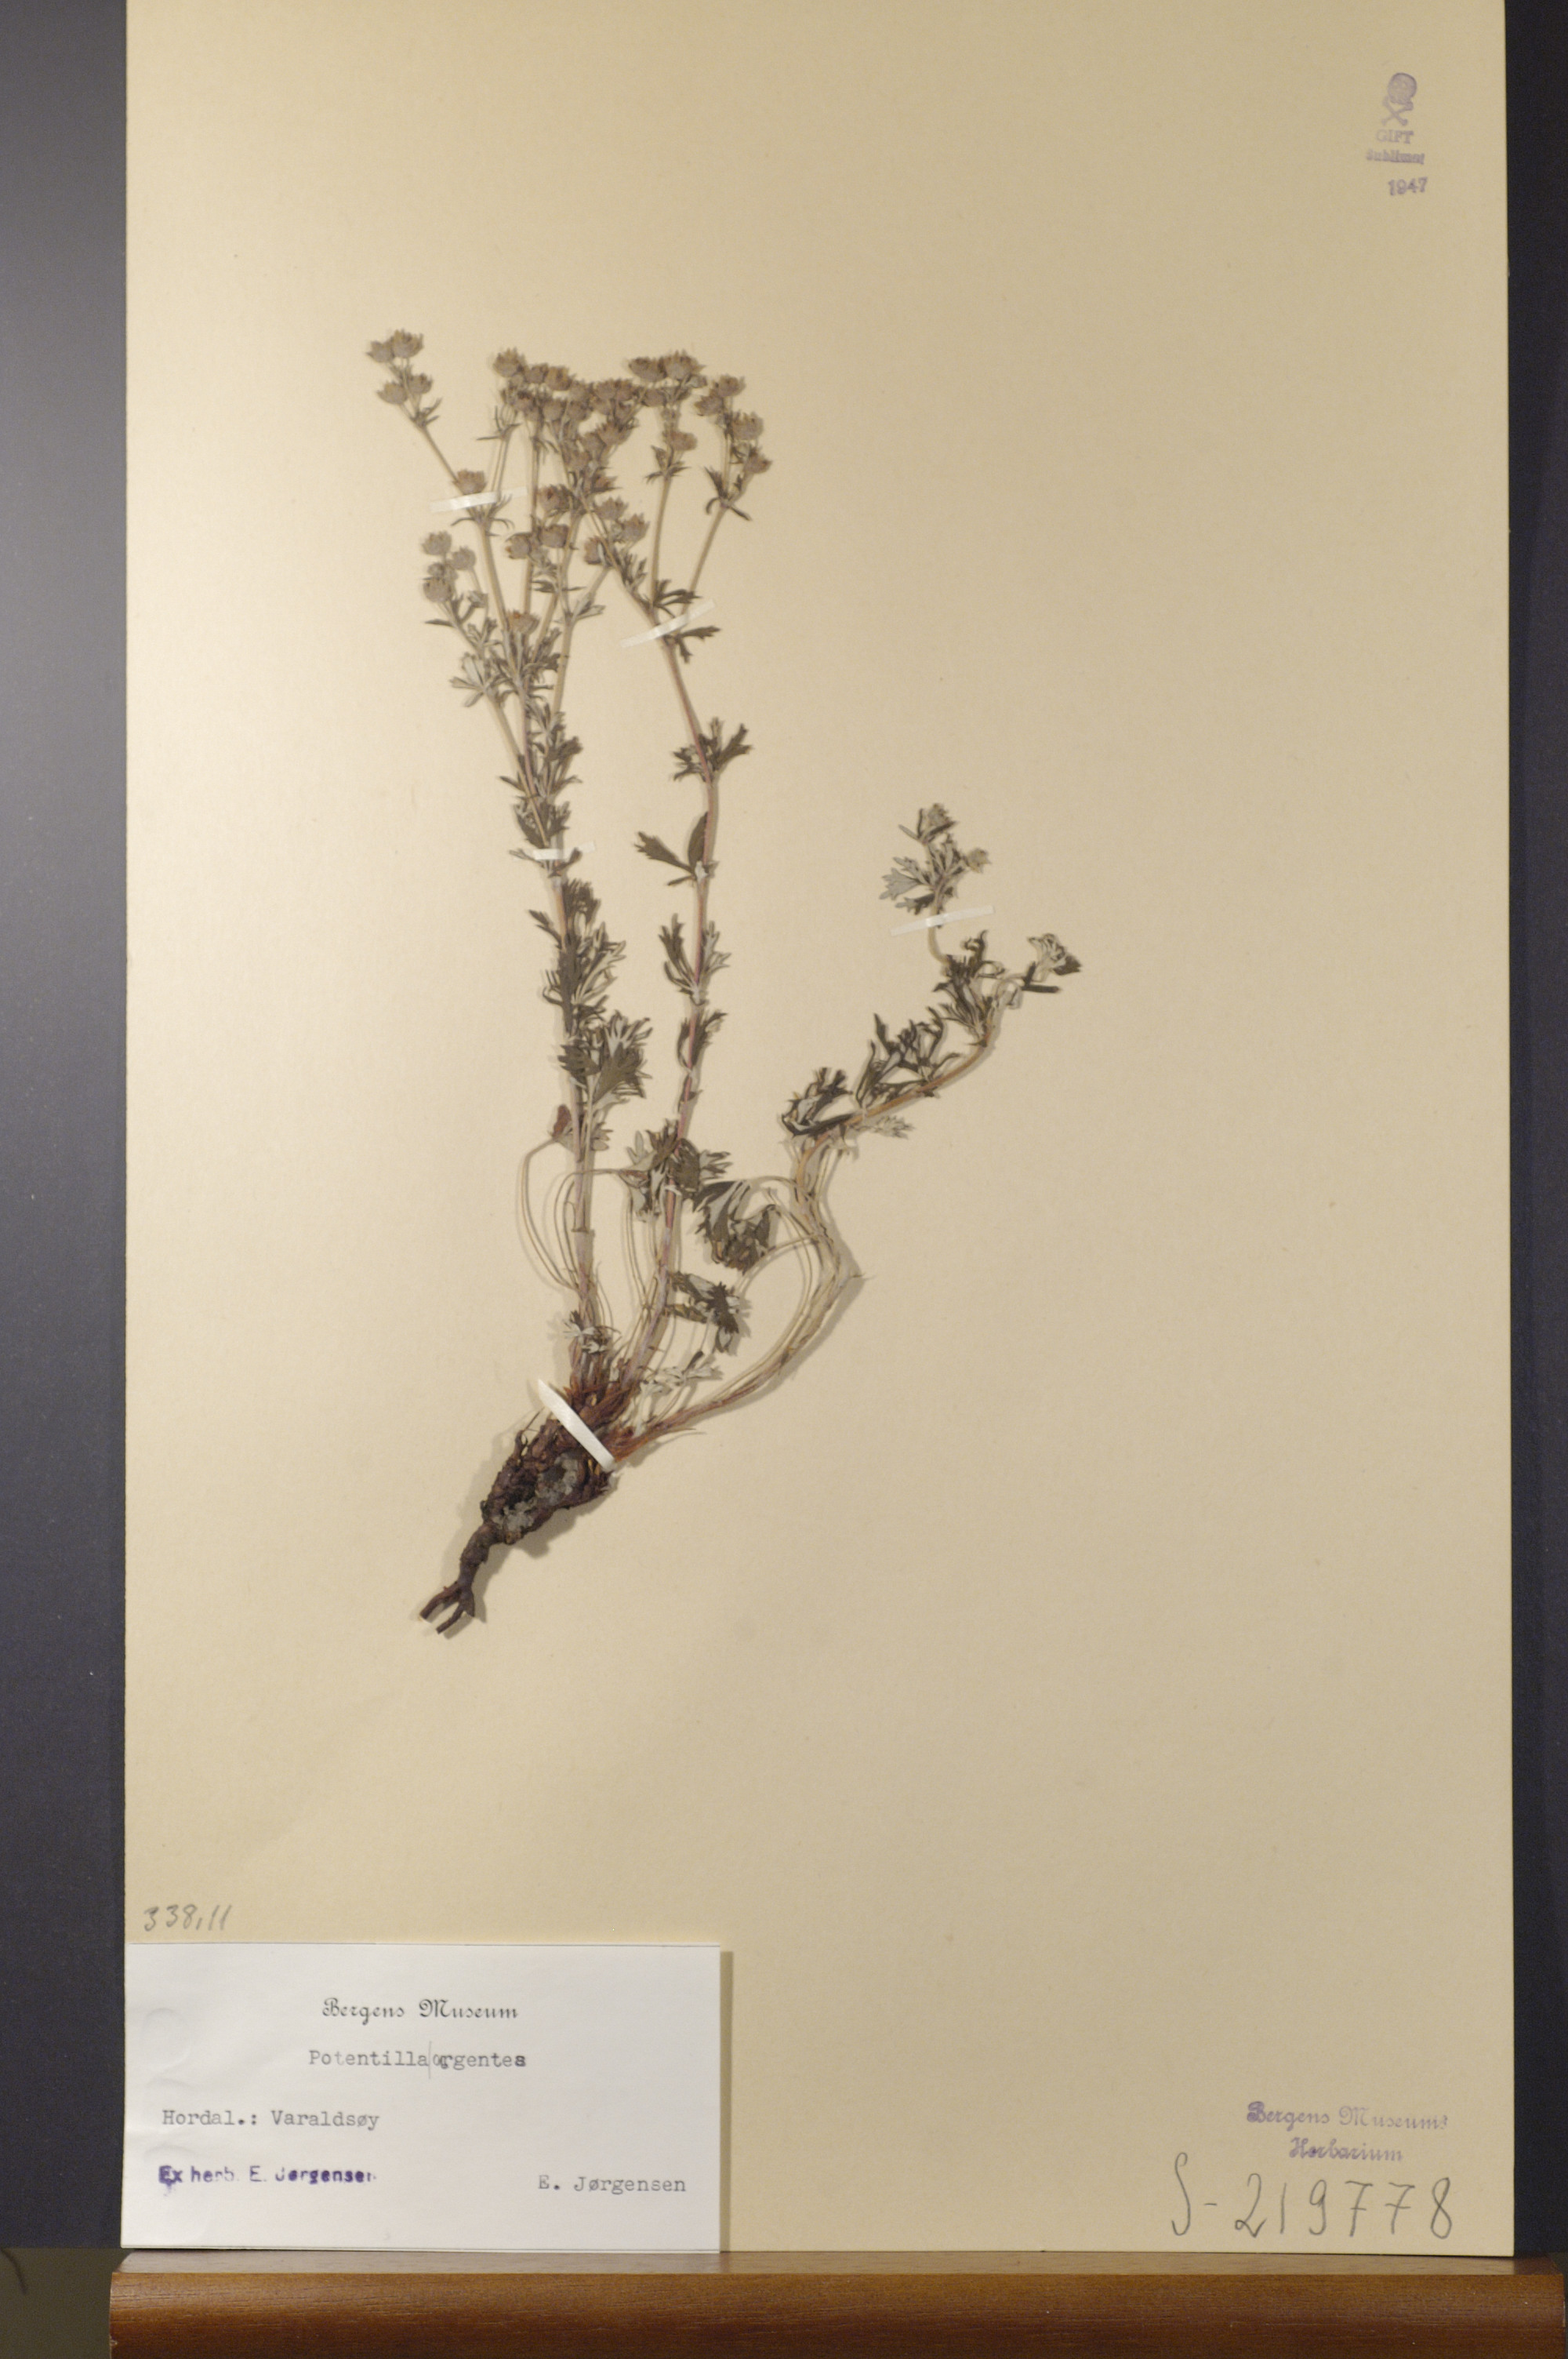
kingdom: Plantae
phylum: Tracheophyta
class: Magnoliopsida
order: Rosales
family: Rosaceae
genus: Potentilla
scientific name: Potentilla argentea
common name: Hoary cinquefoil
